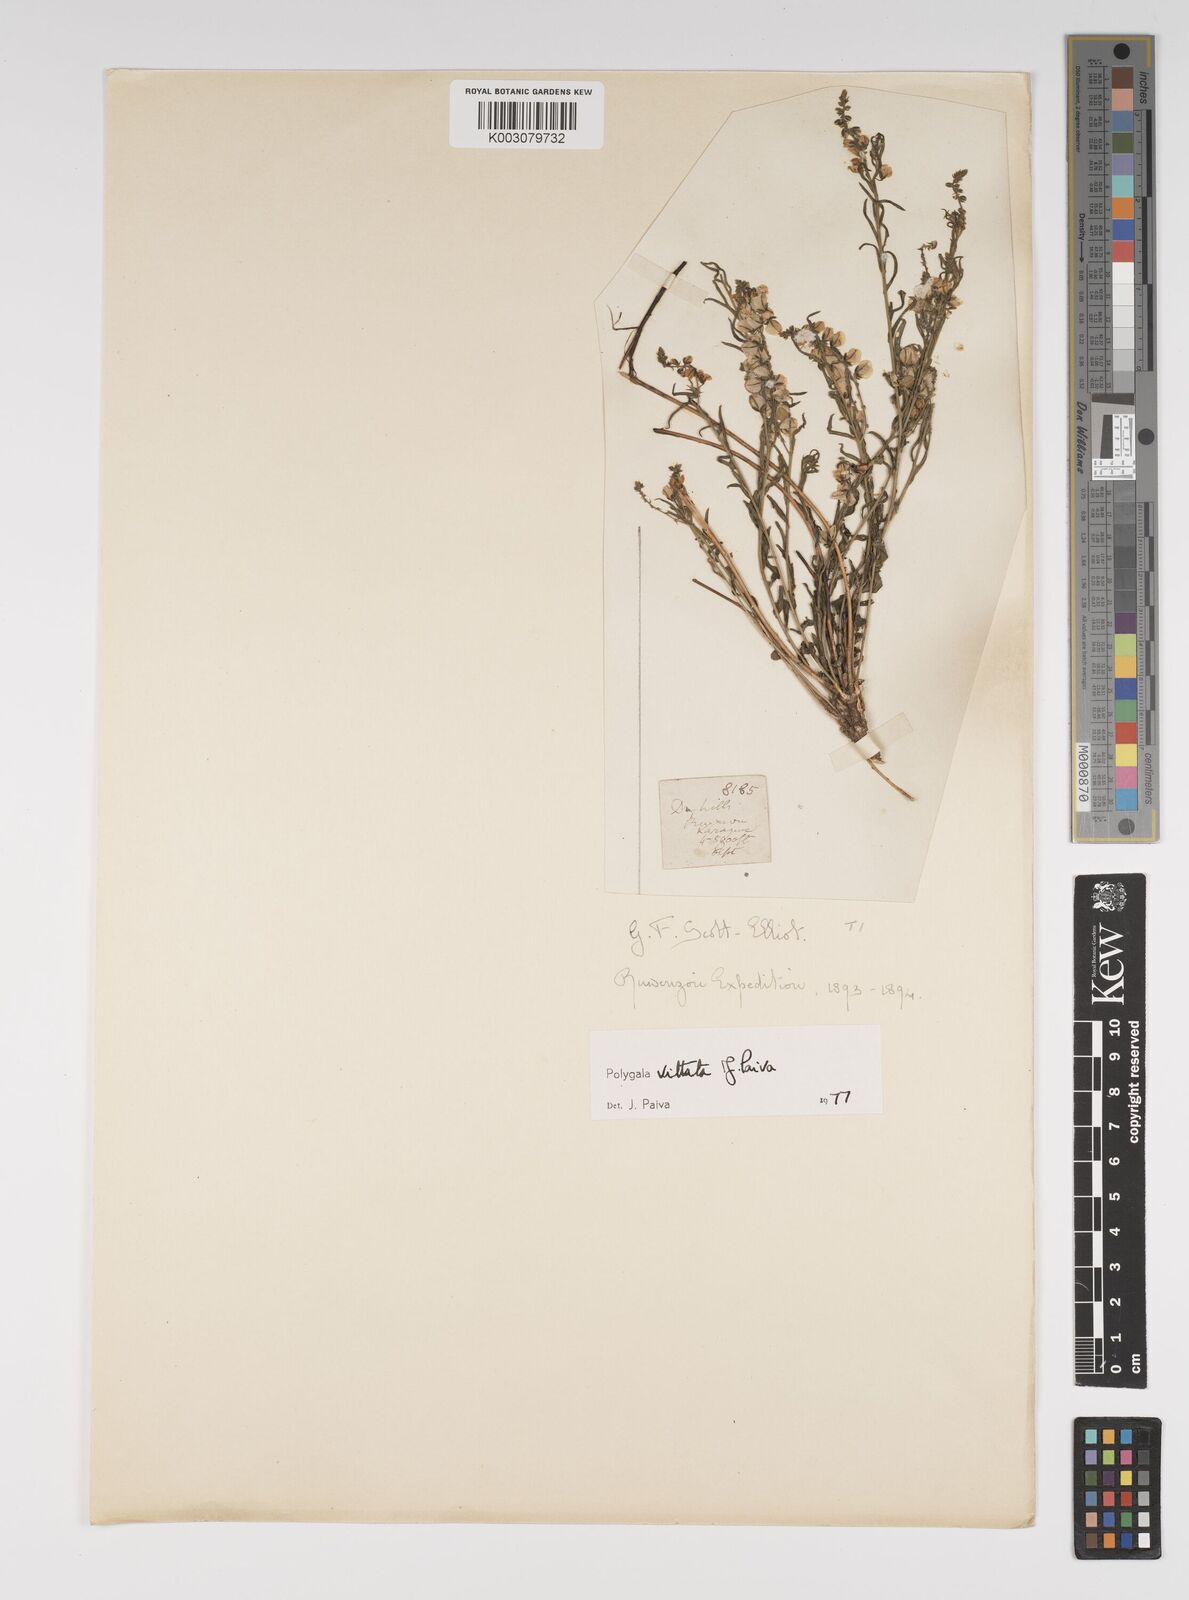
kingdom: Plantae
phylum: Tracheophyta
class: Magnoliopsida
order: Fabales
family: Polygalaceae
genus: Polygala
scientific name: Polygala vittata
